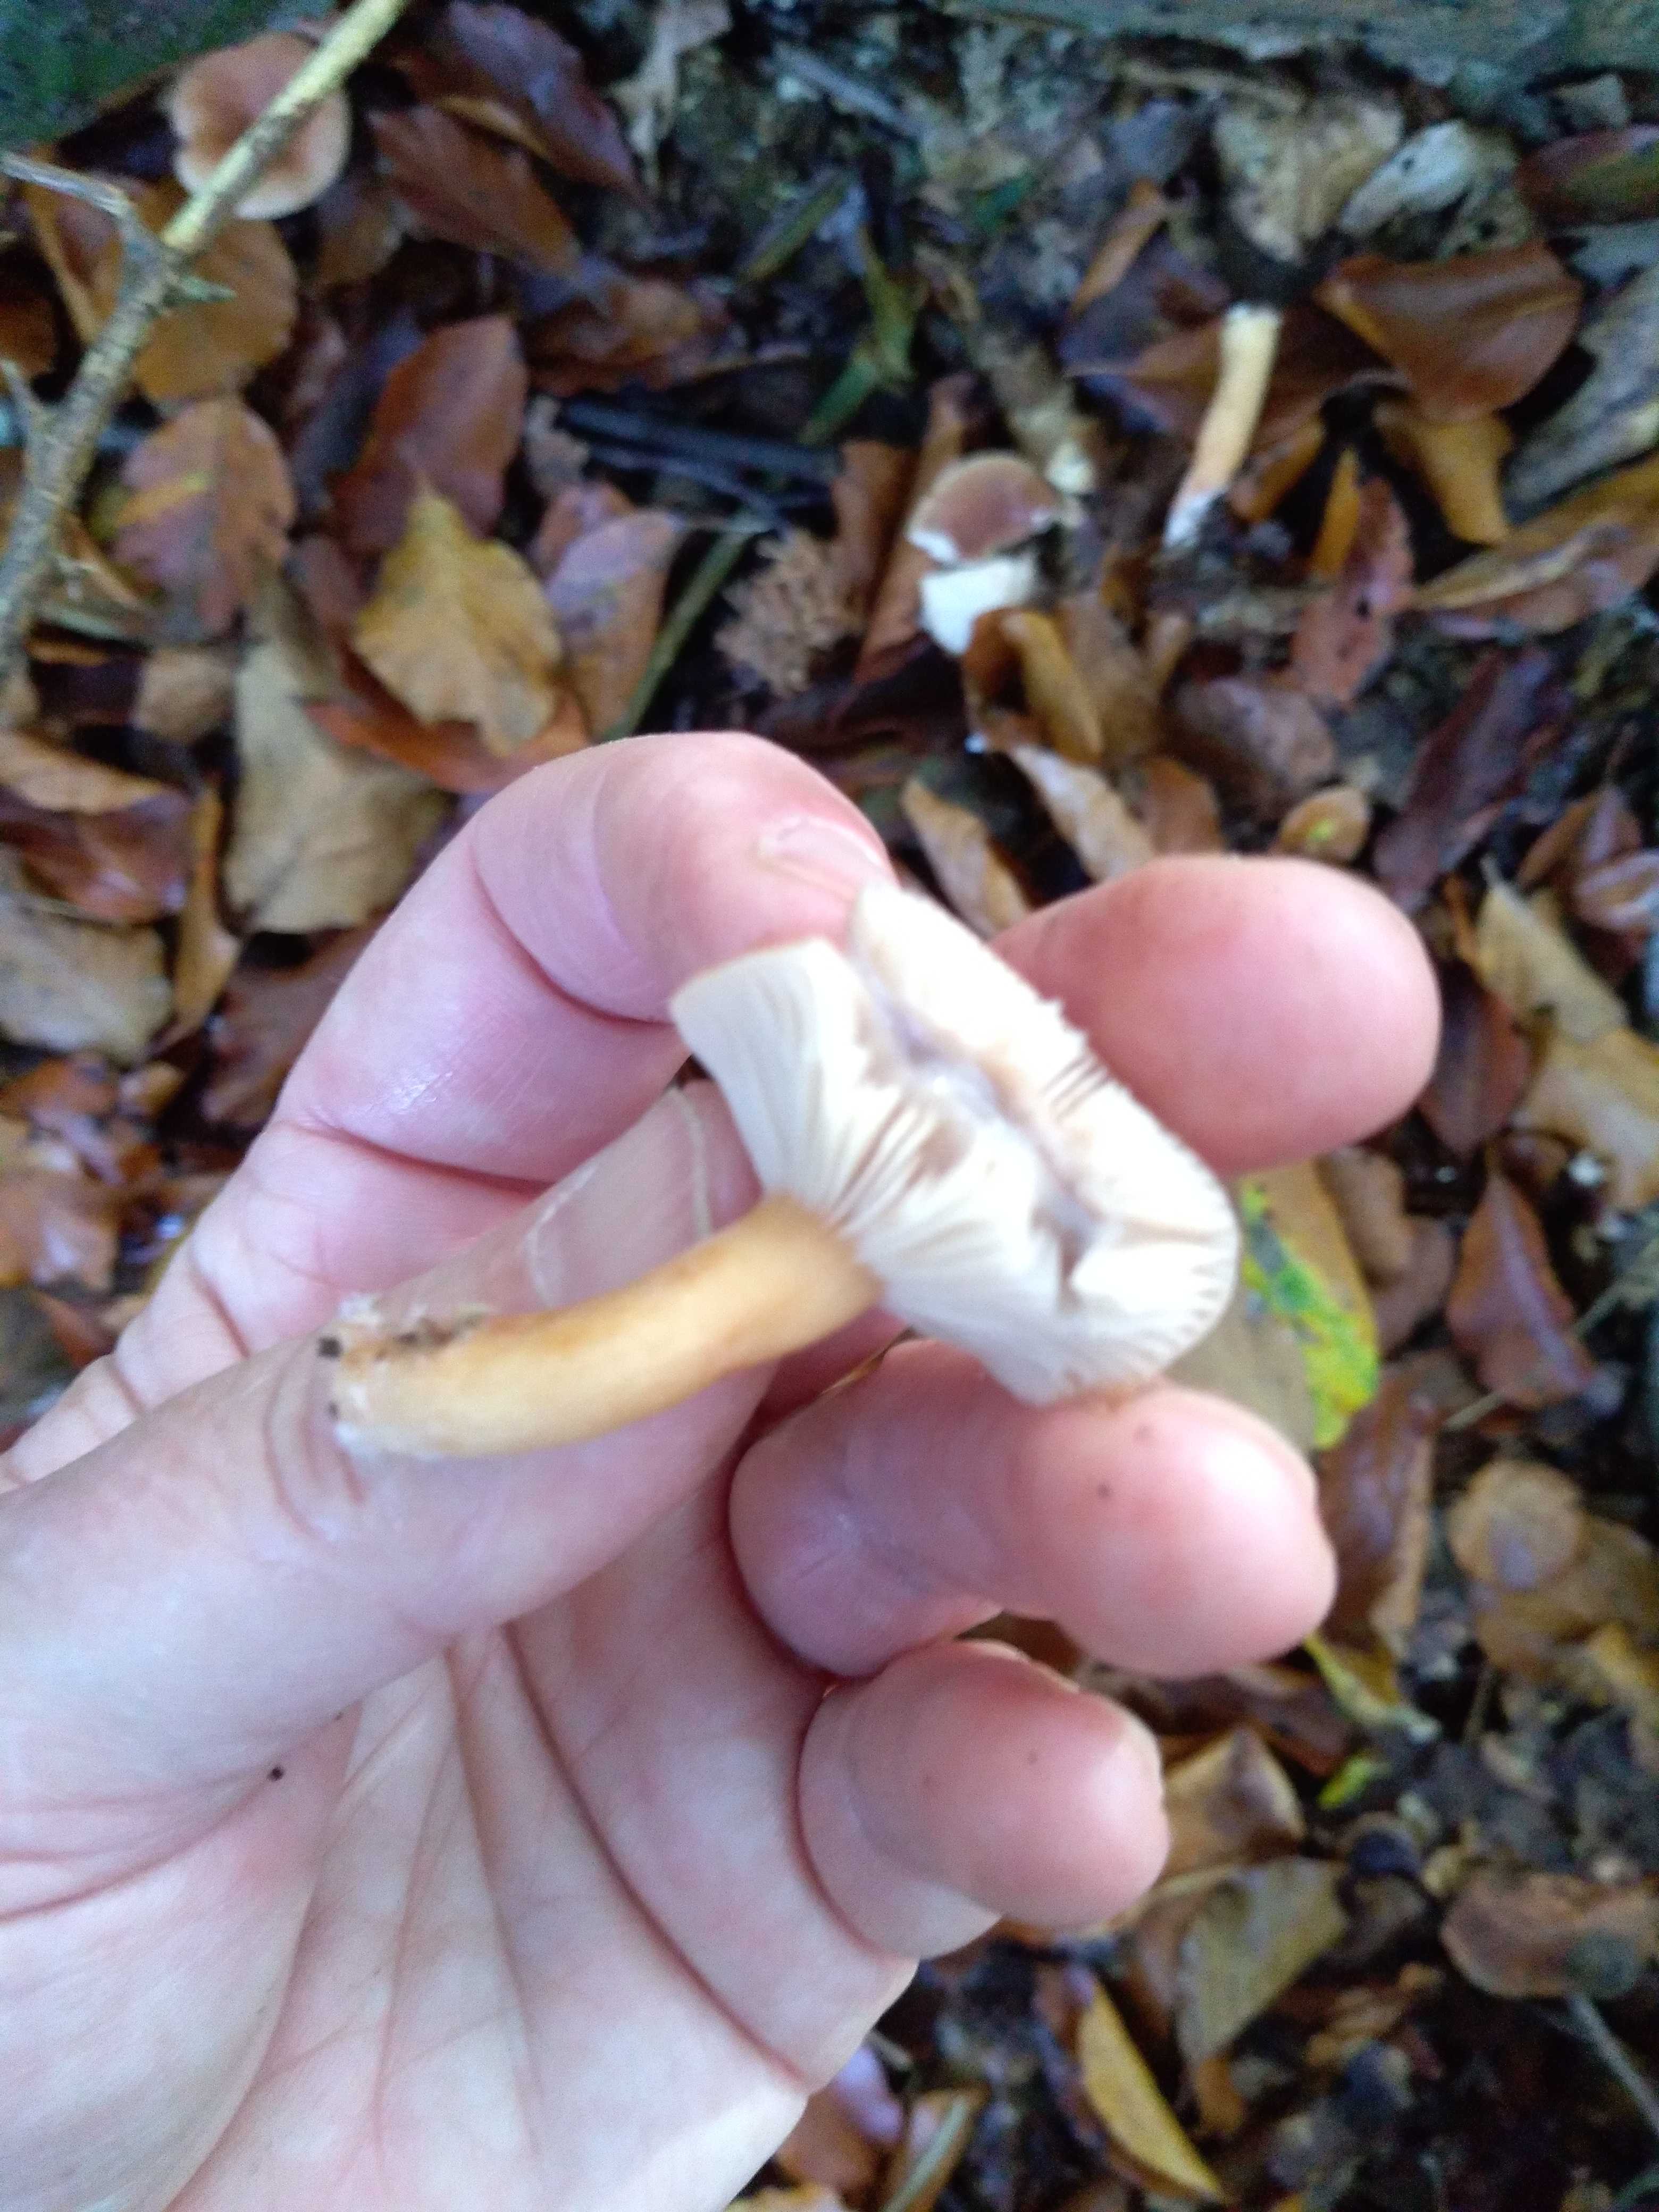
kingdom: Fungi
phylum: Basidiomycota
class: Agaricomycetes
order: Russulales
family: Russulaceae
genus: Lactarius
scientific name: Lactarius
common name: mælkehat
